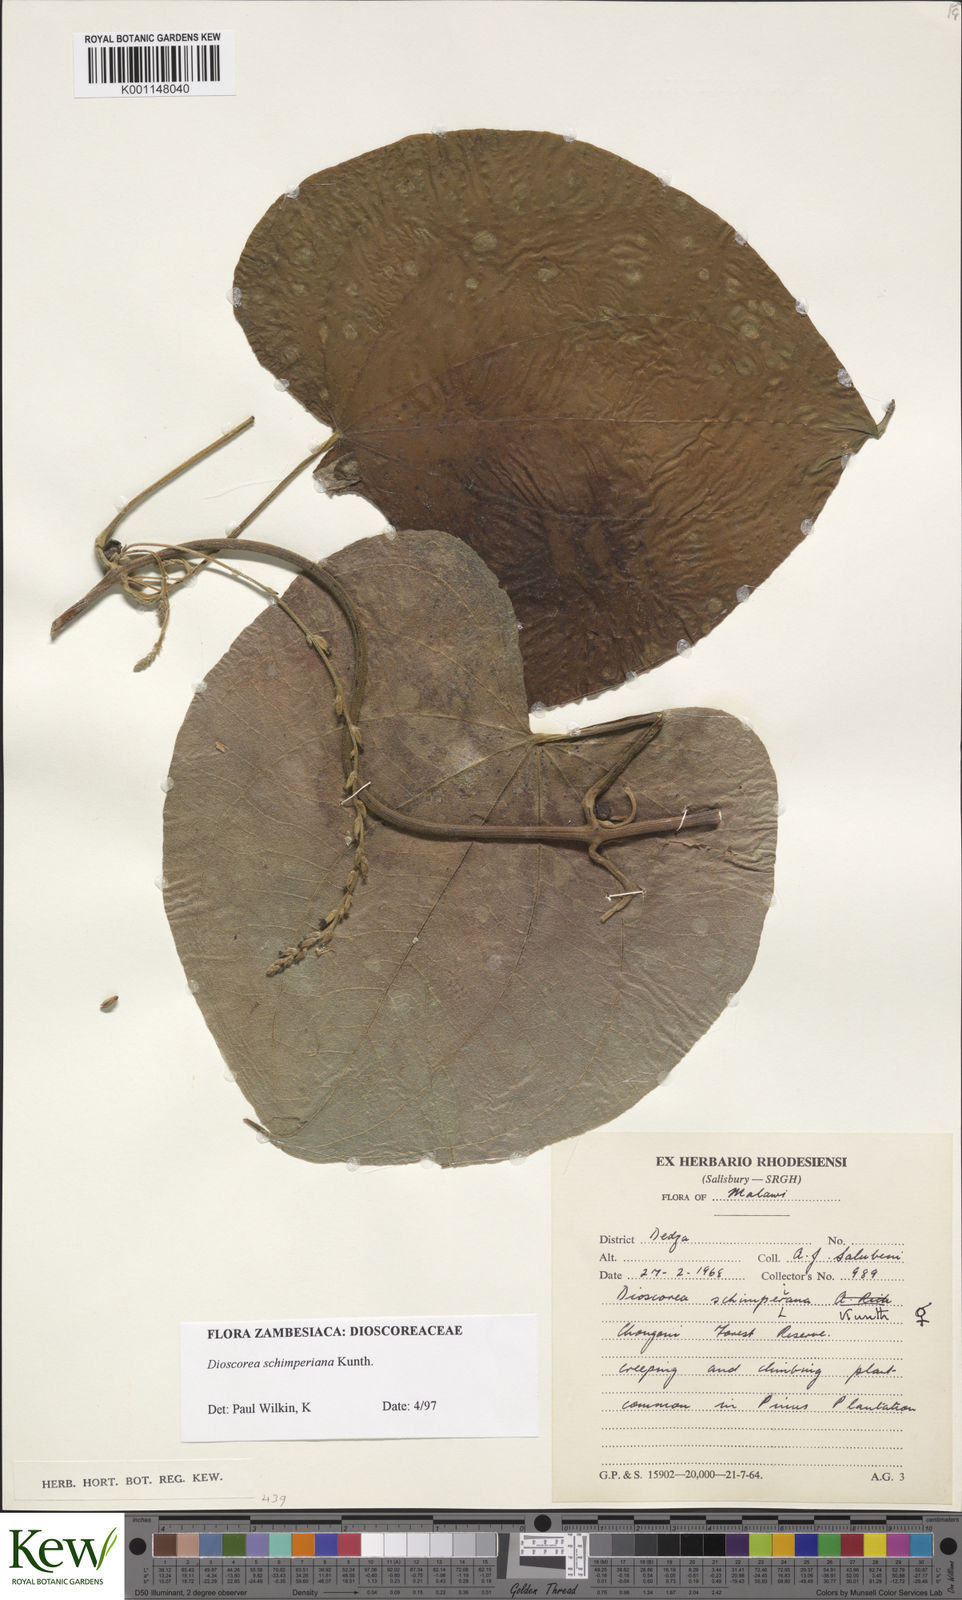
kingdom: Plantae
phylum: Tracheophyta
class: Liliopsida
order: Dioscoreales
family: Dioscoreaceae
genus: Dioscorea
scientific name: Dioscorea schimperiana
